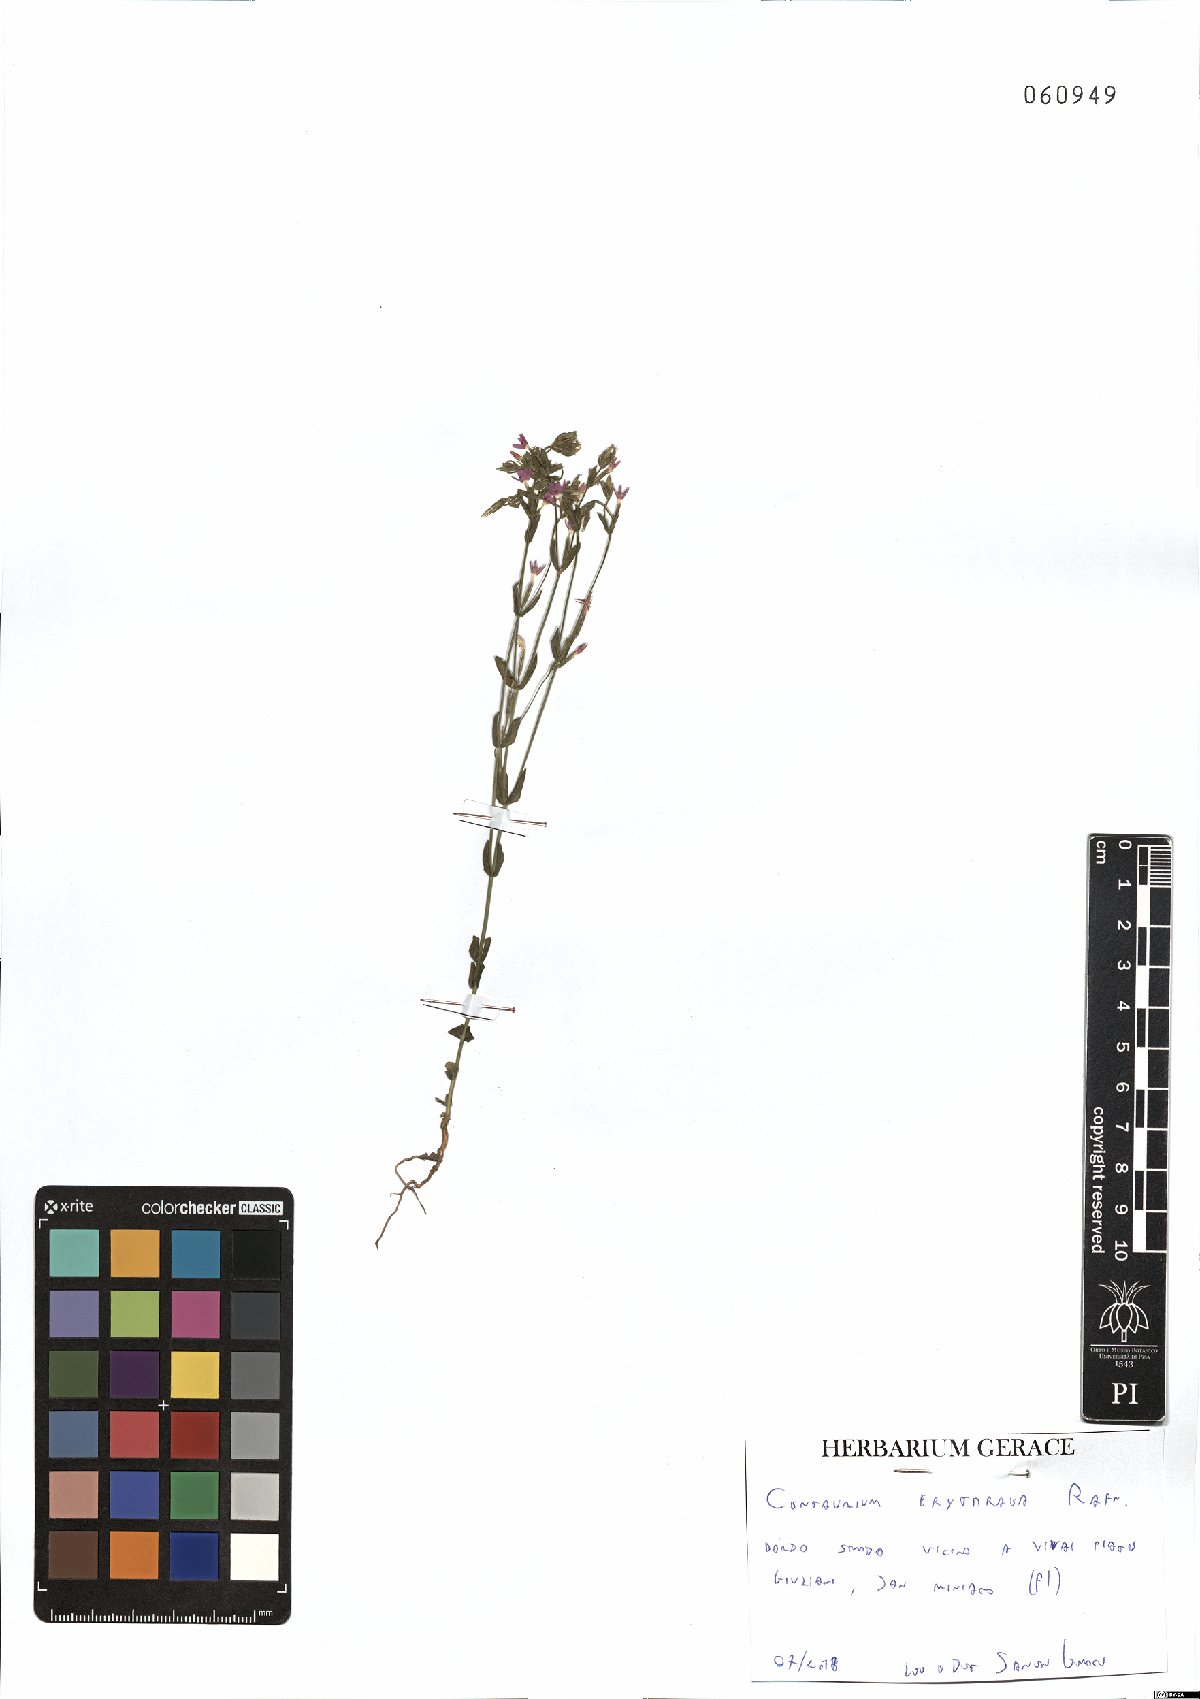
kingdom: Plantae
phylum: Tracheophyta
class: Magnoliopsida
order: Gentianales
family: Gentianaceae
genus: Centaurium
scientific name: Centaurium erythraea
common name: Common centaury
